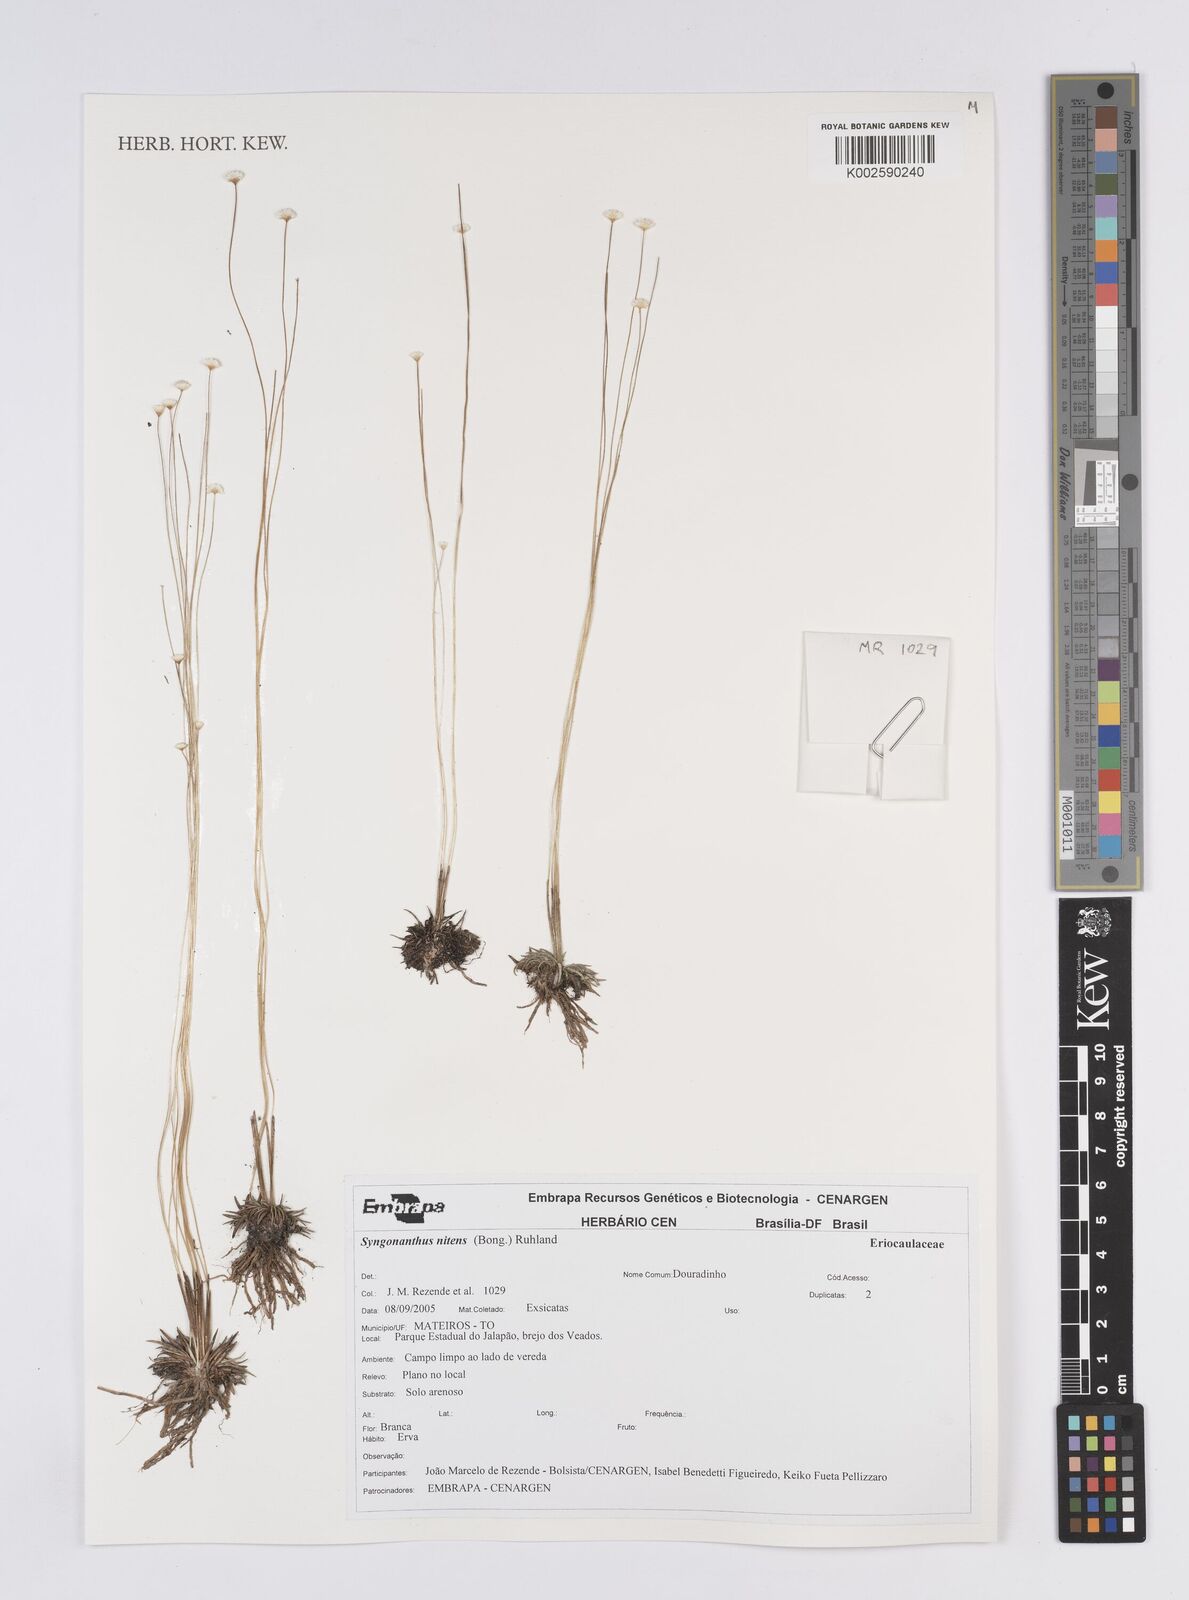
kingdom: Plantae
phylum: Tracheophyta
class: Liliopsida
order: Poales
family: Eriocaulaceae
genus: Syngonanthus
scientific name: Syngonanthus nitens
